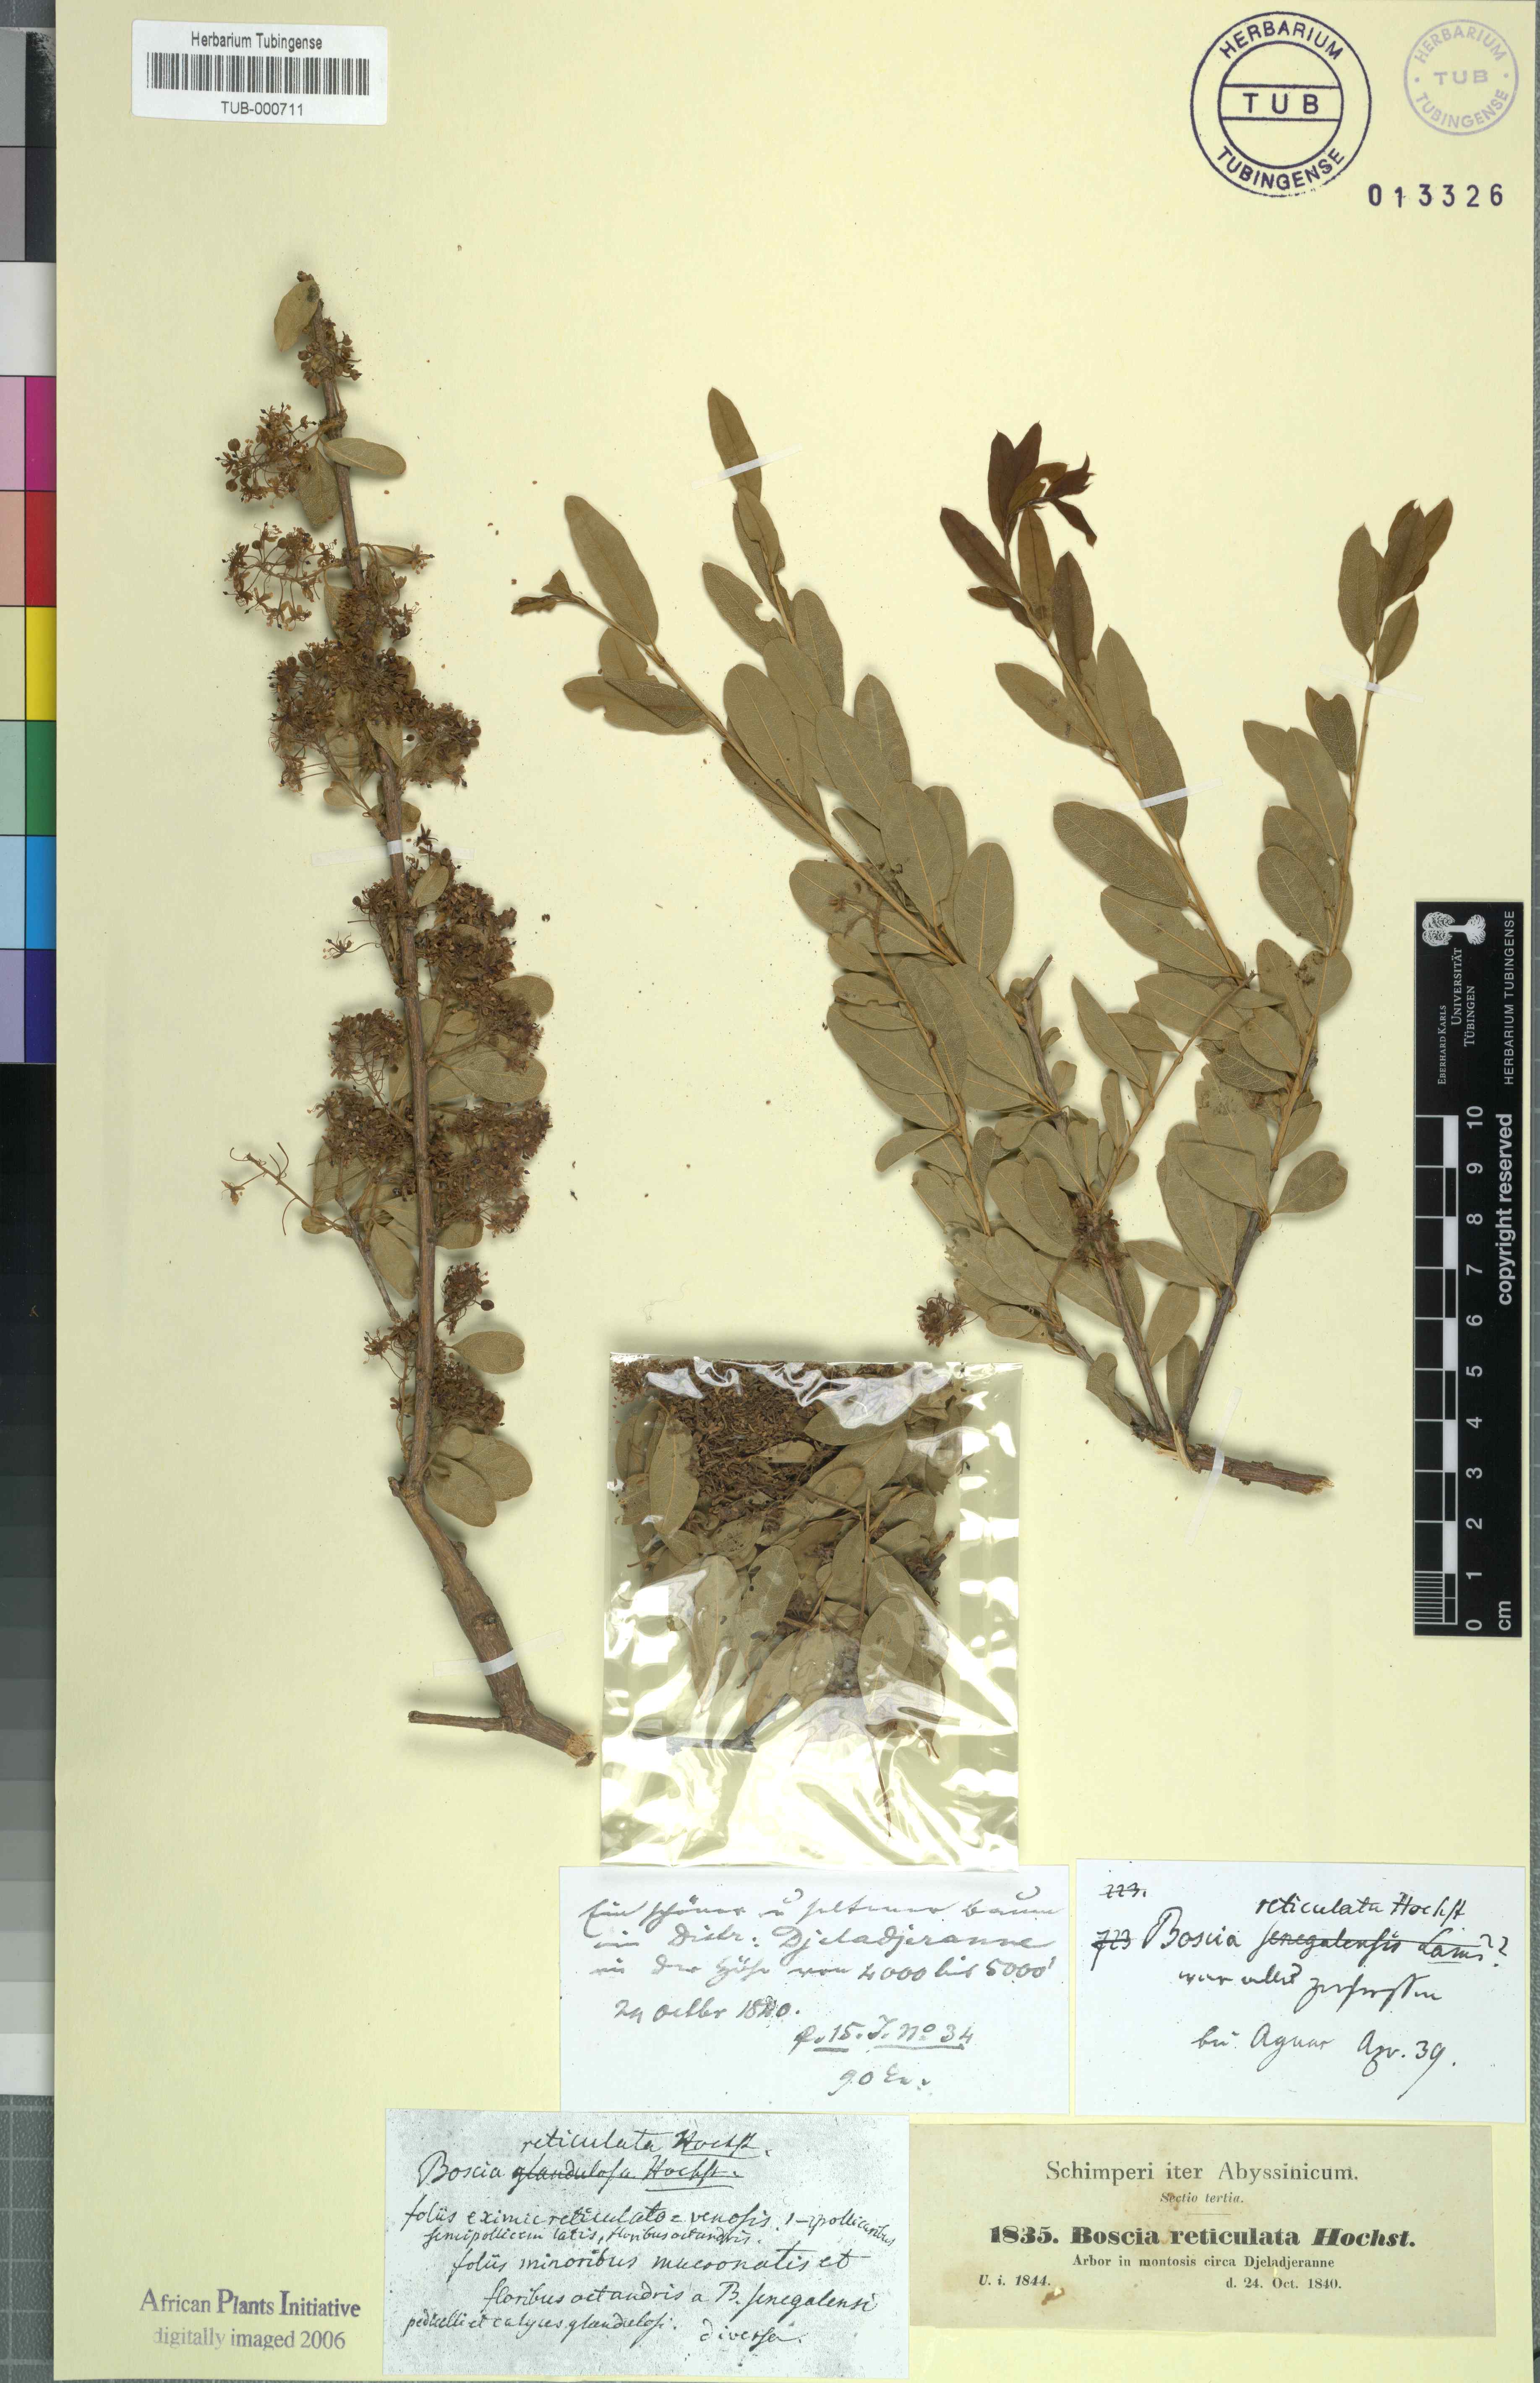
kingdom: Plantae
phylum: Tracheophyta
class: Magnoliopsida
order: Brassicales
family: Capparaceae
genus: Boscia
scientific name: Boscia angustifolia
